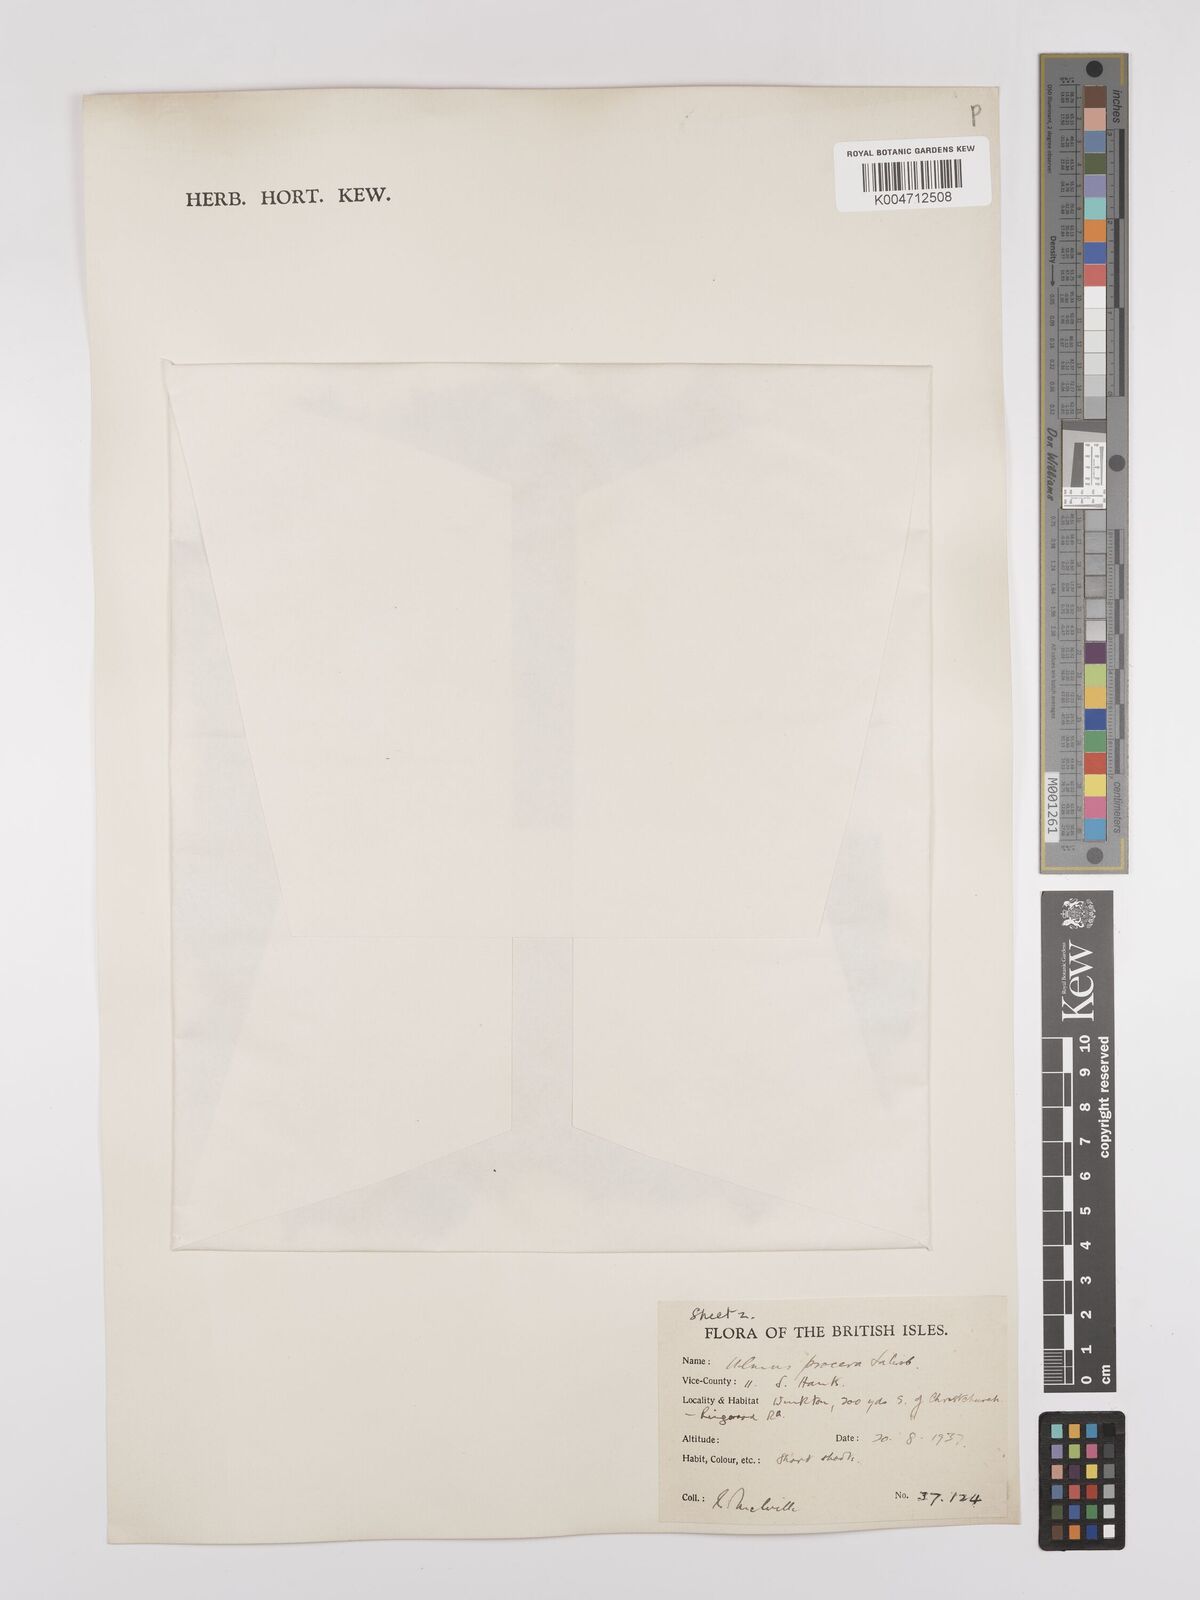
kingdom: Plantae
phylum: Tracheophyta
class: Magnoliopsida
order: Rosales
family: Ulmaceae
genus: Ulmus
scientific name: Ulmus minor
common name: Small-leaved elm
